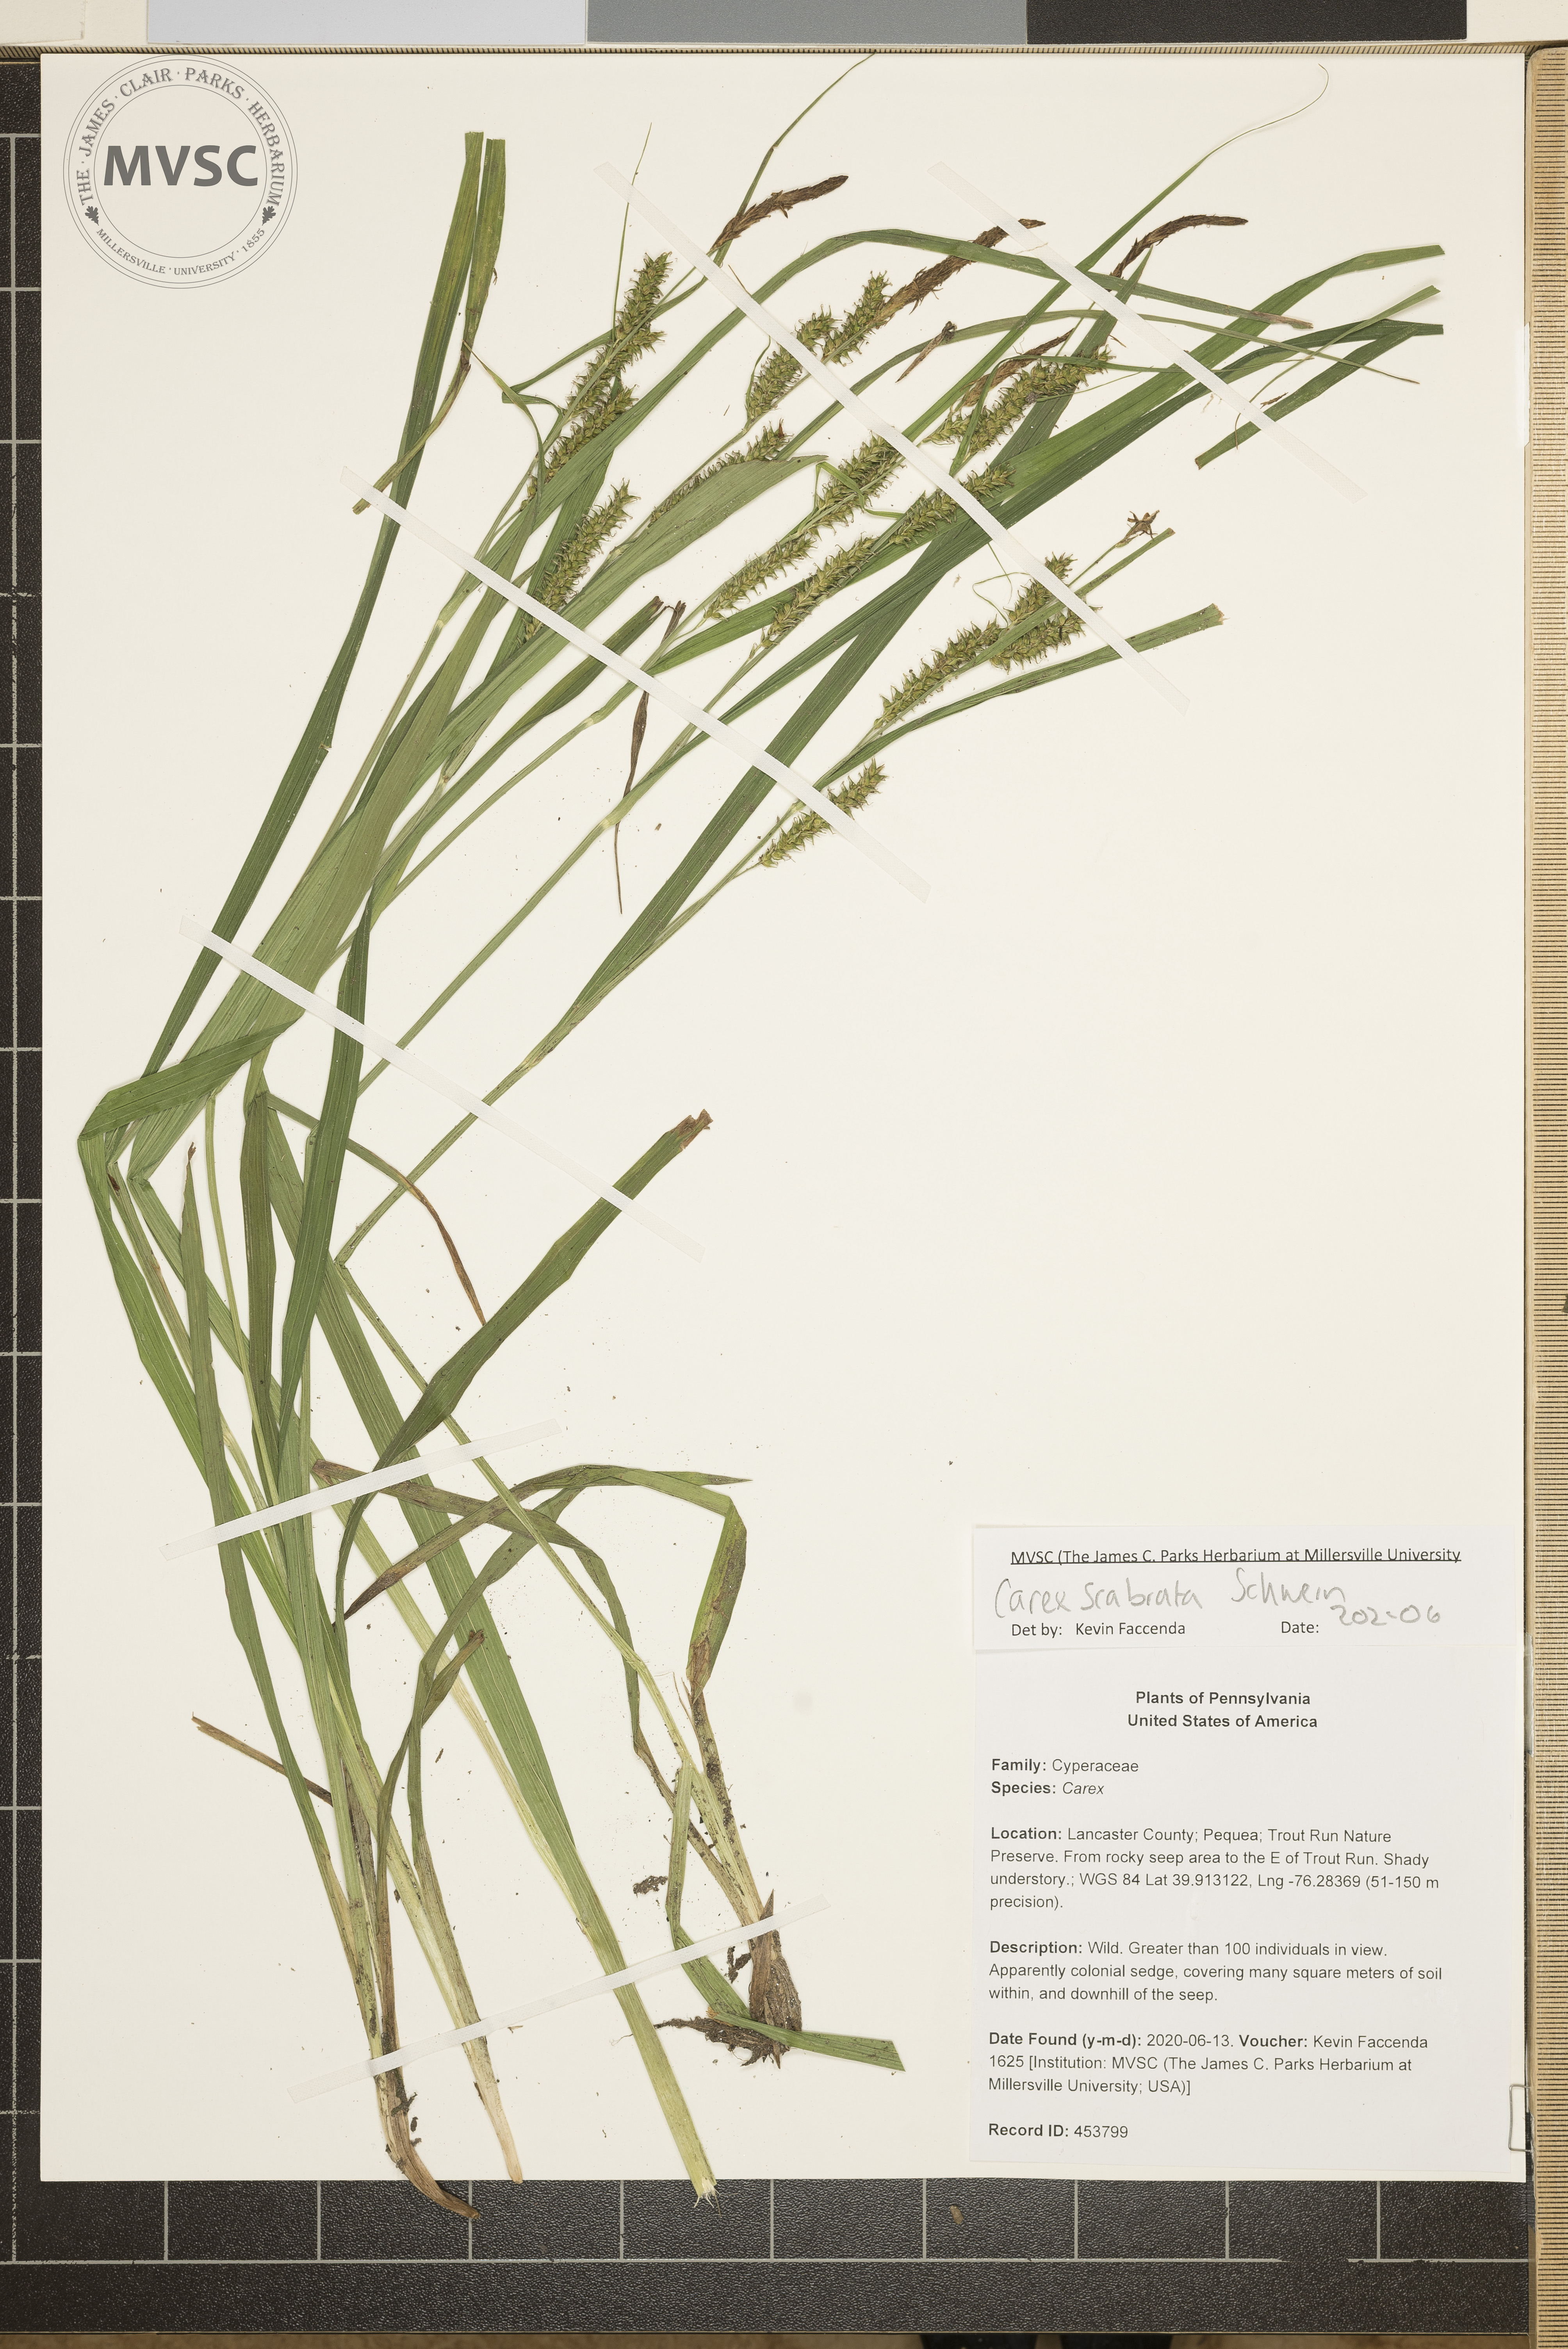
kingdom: Plantae
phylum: Tracheophyta
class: Liliopsida
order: Poales
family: Cyperaceae
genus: Carex
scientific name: Carex scabrata
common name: Eastern rough sedge
